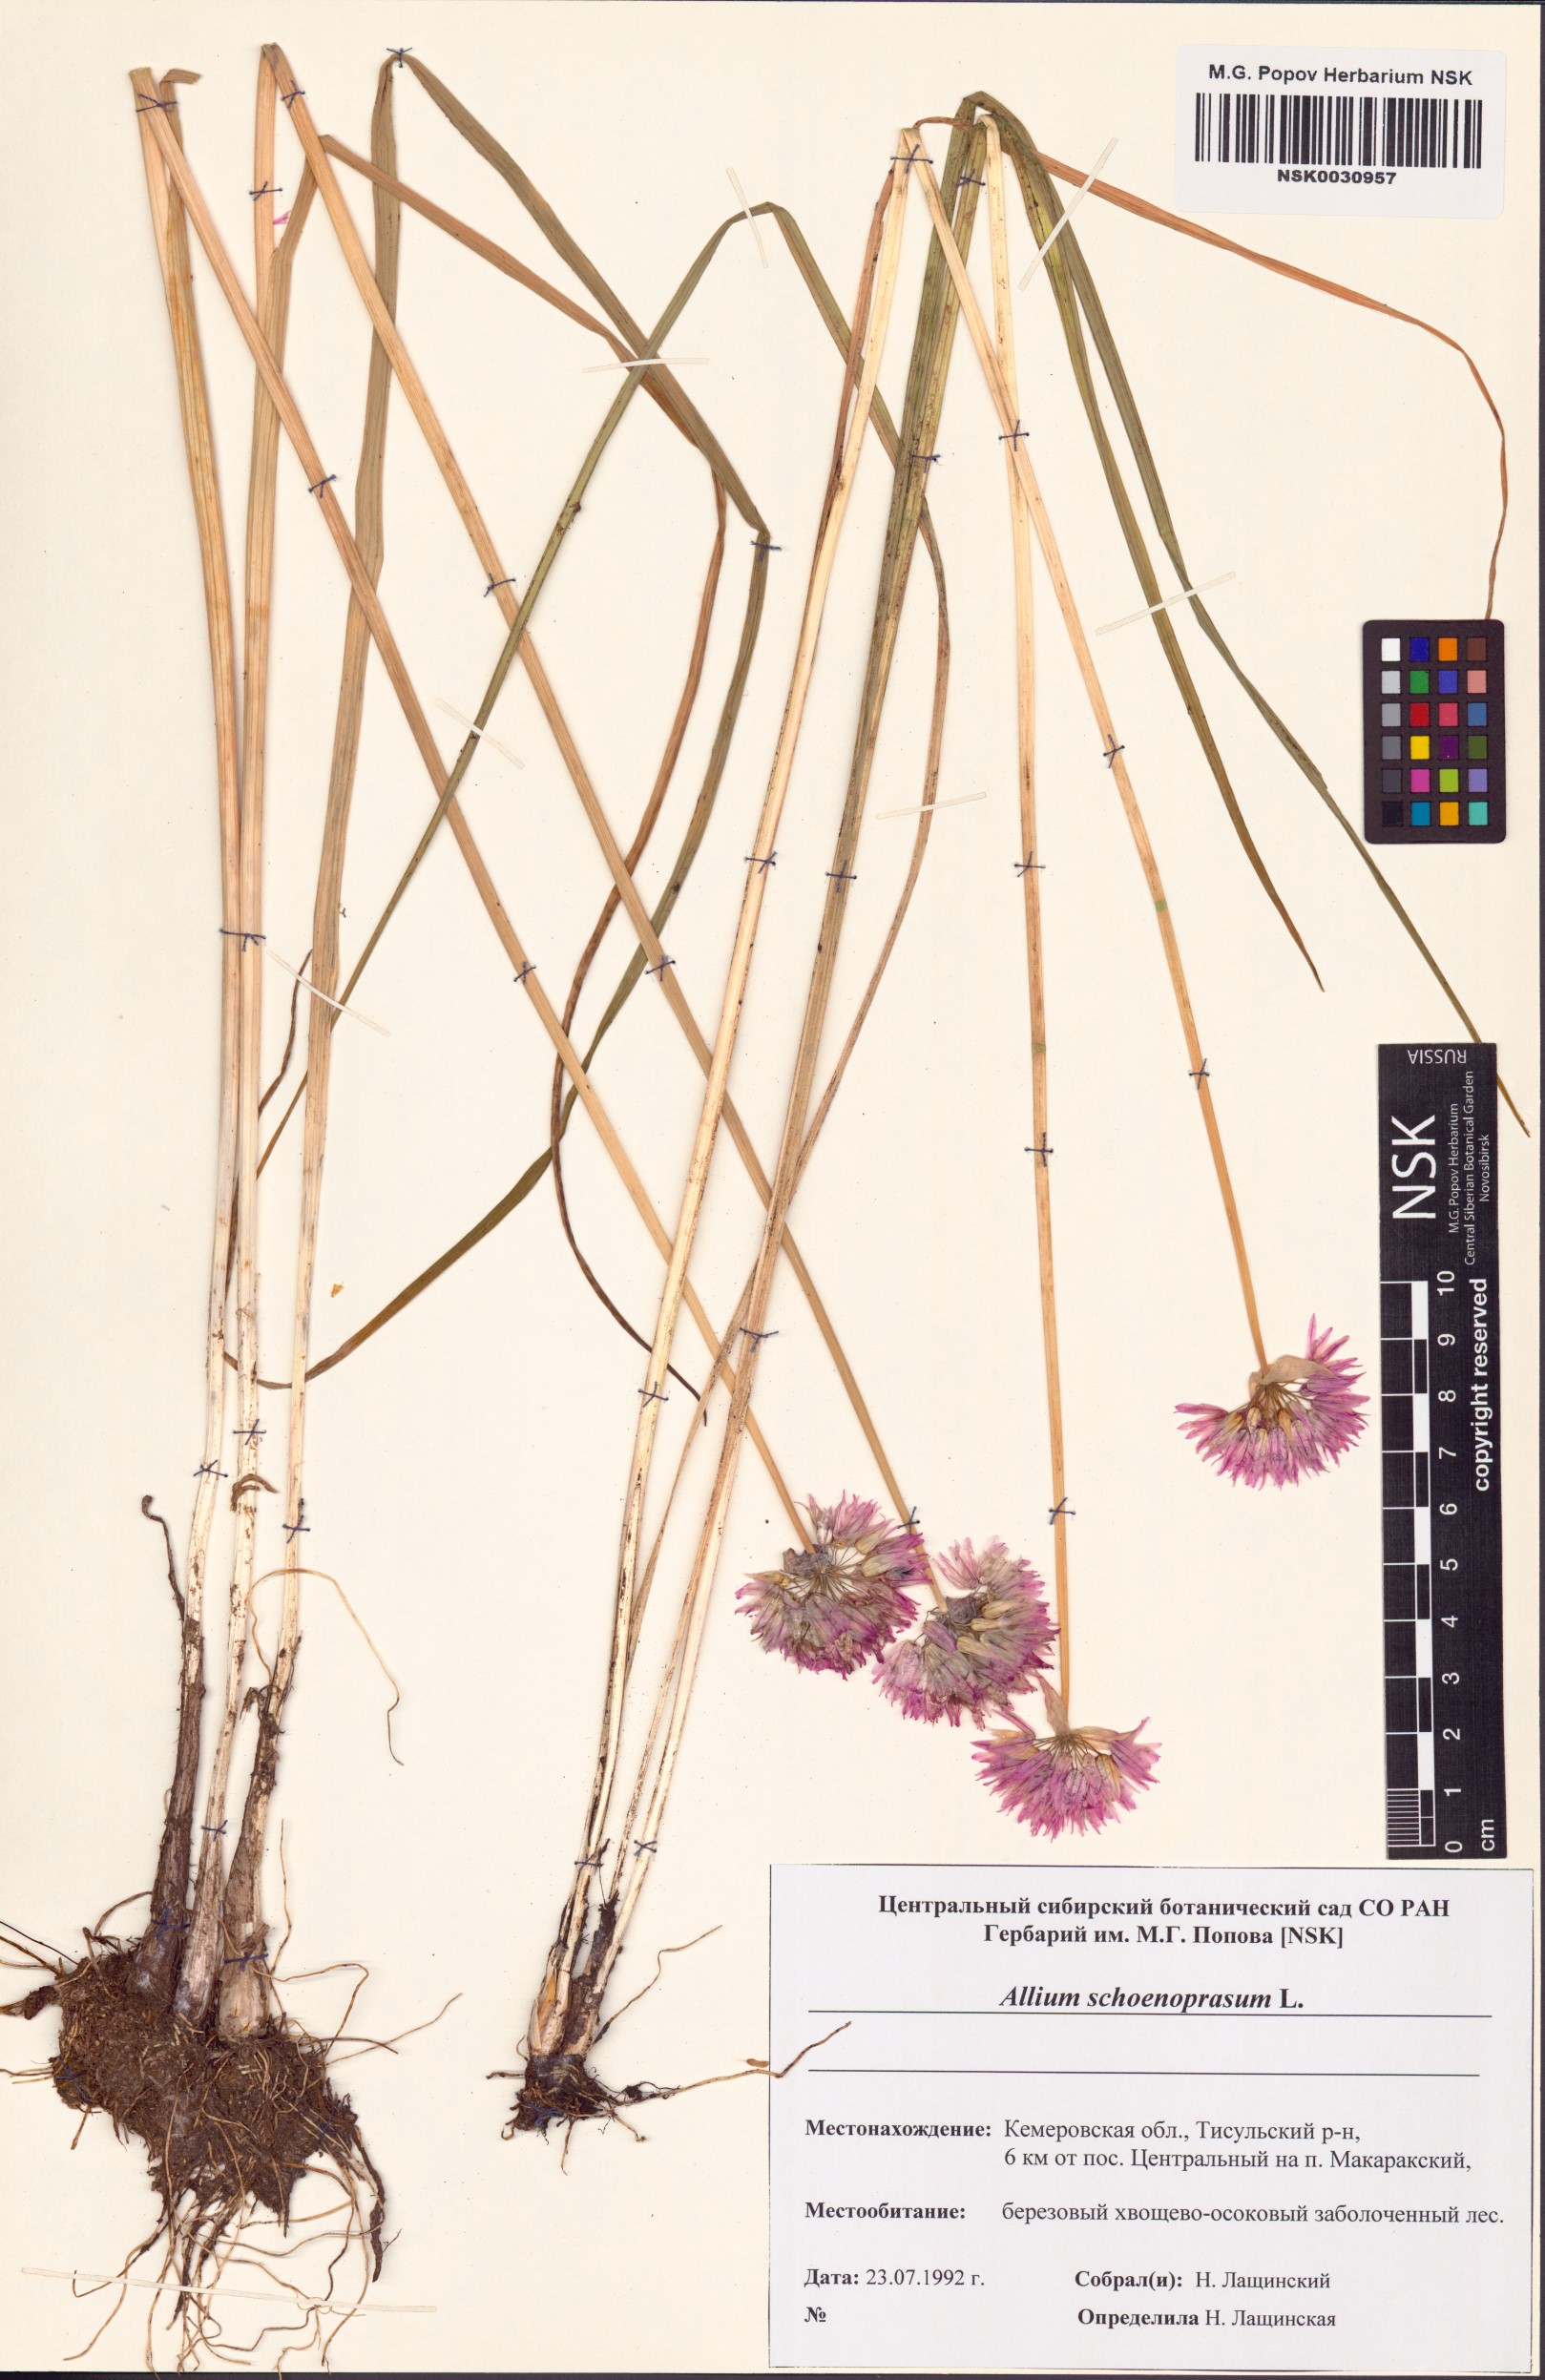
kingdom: Plantae
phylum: Tracheophyta
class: Liliopsida
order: Asparagales
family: Amaryllidaceae
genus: Allium
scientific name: Allium schoenoprasum
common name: Chives
